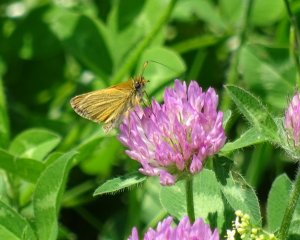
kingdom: Animalia
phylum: Arthropoda
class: Insecta
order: Lepidoptera
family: Hesperiidae
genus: Thymelicus
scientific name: Thymelicus lineola
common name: European Skipper
